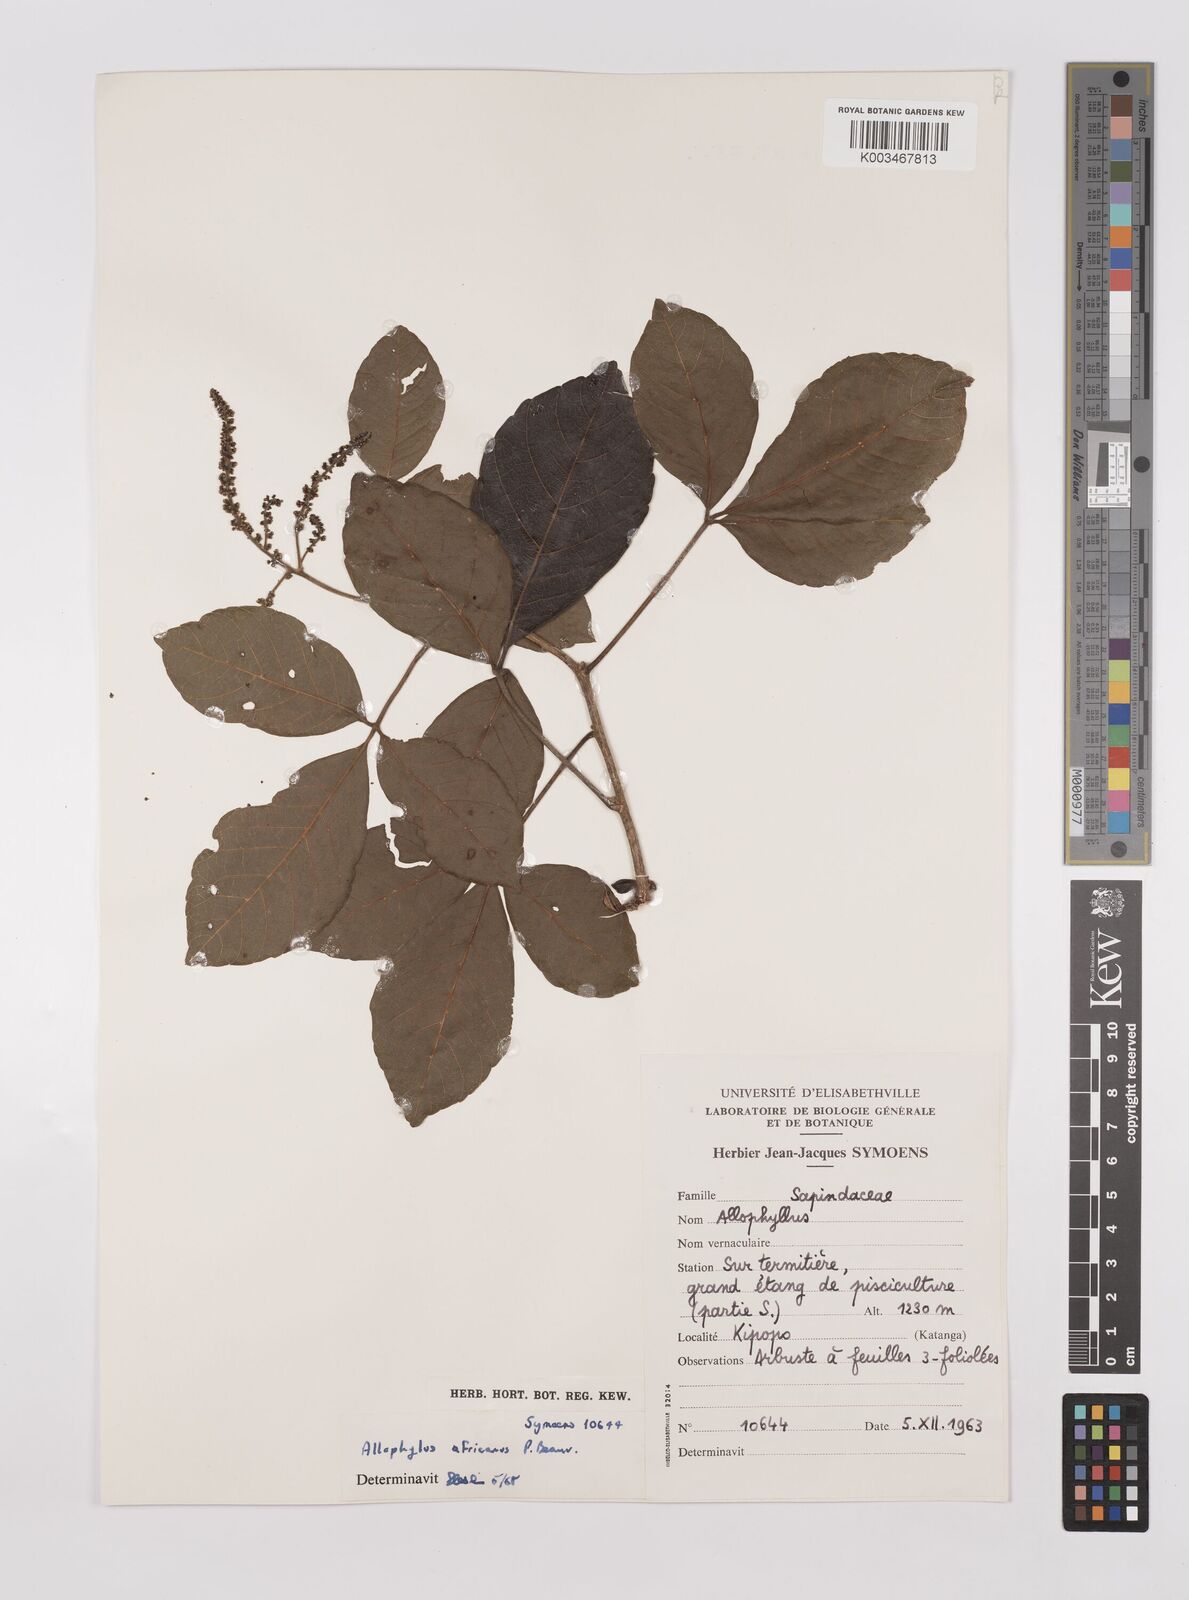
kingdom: Plantae
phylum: Tracheophyta
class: Magnoliopsida
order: Sapindales
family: Sapindaceae
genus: Allophylus
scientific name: Allophylus africanus
